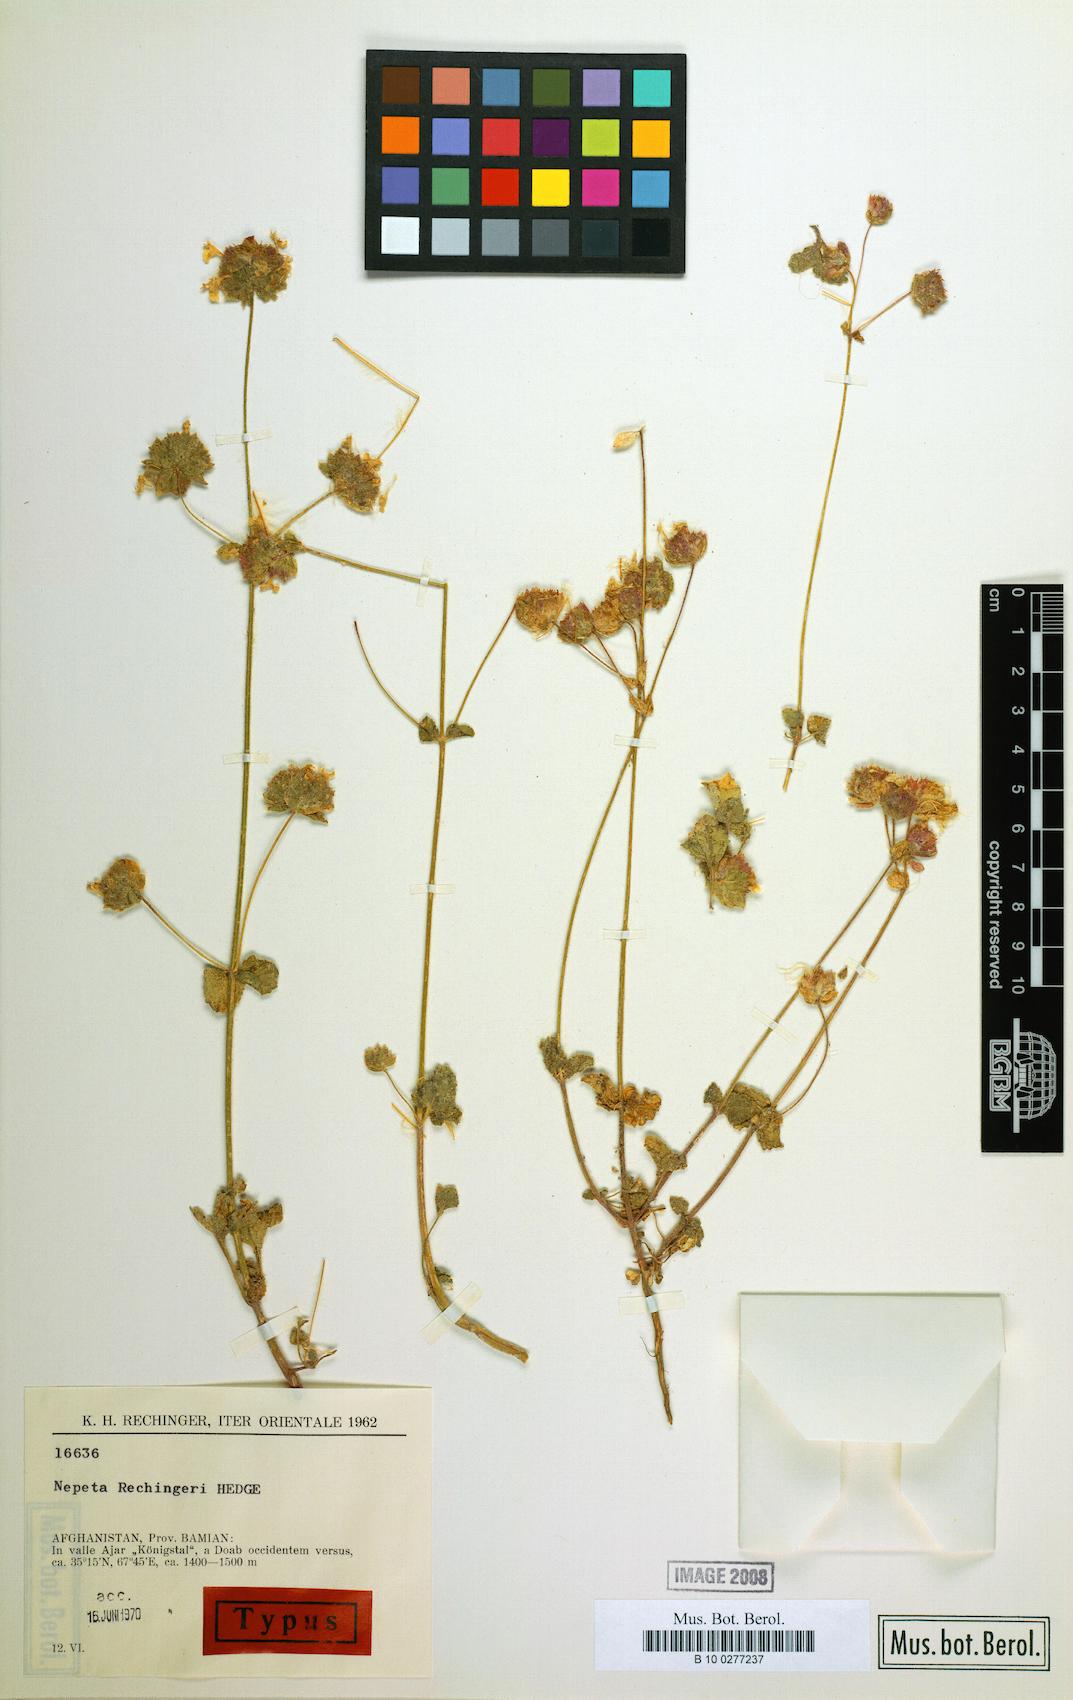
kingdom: Plantae
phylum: Tracheophyta
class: Magnoliopsida
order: Lamiales
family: Lamiaceae
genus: Nepeta
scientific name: Nepeta rechingeri
